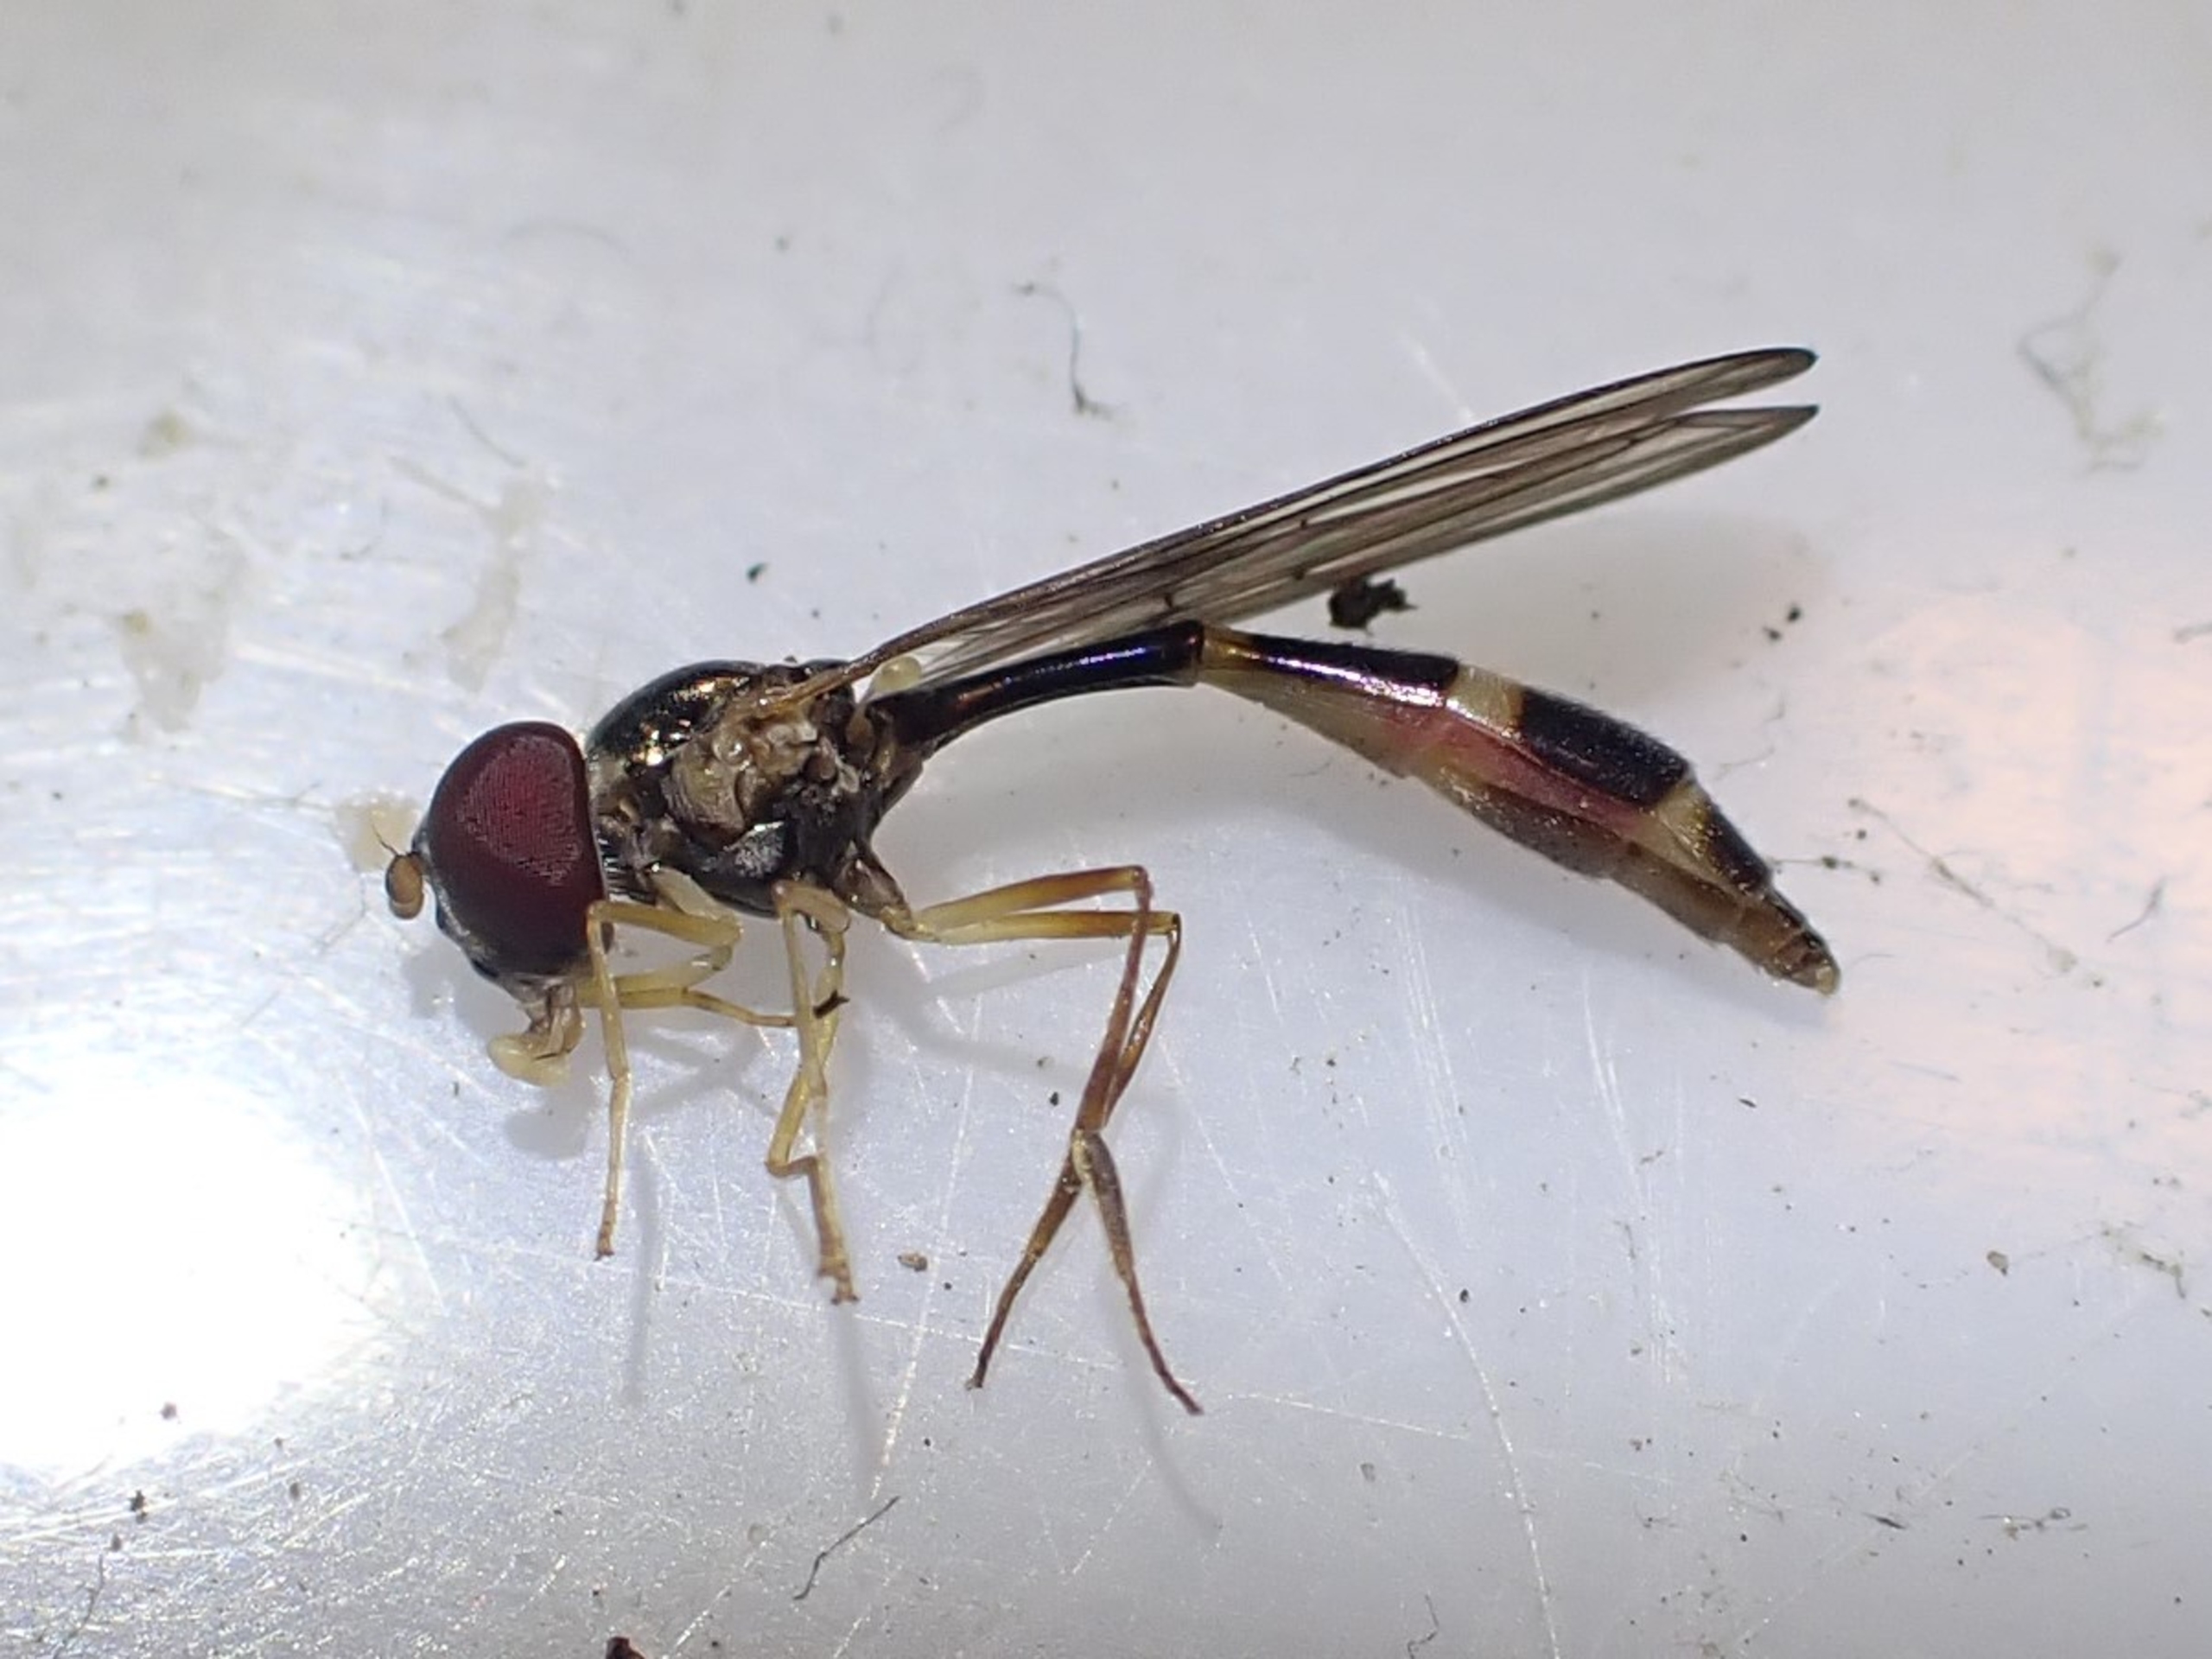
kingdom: Animalia
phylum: Arthropoda
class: Insecta
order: Diptera
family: Syrphidae
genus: Baccha
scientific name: Baccha elongata
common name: Mat spydsvirreflue
